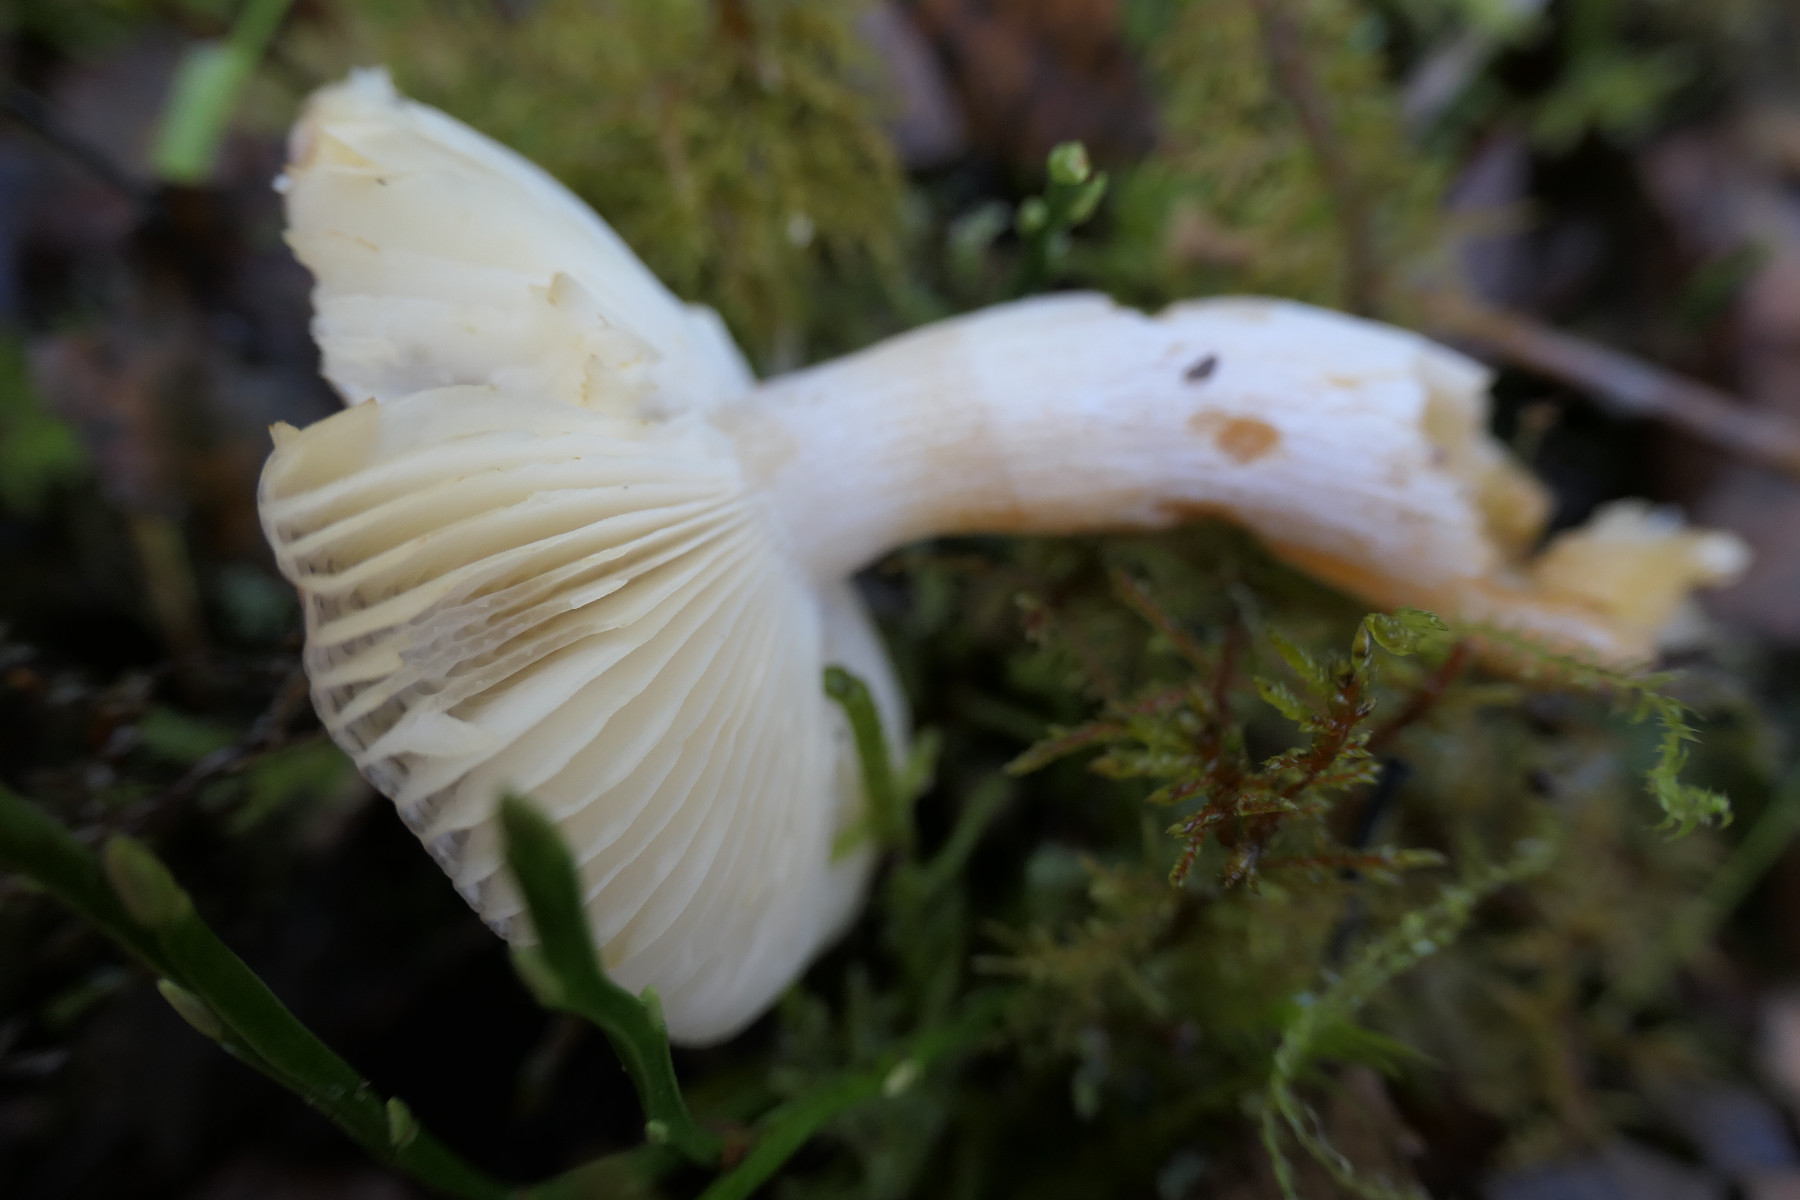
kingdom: Fungi
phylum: Basidiomycota
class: Agaricomycetes
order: Russulales
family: Russulaceae
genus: Russula
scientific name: Russula nitida
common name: året skørhat
